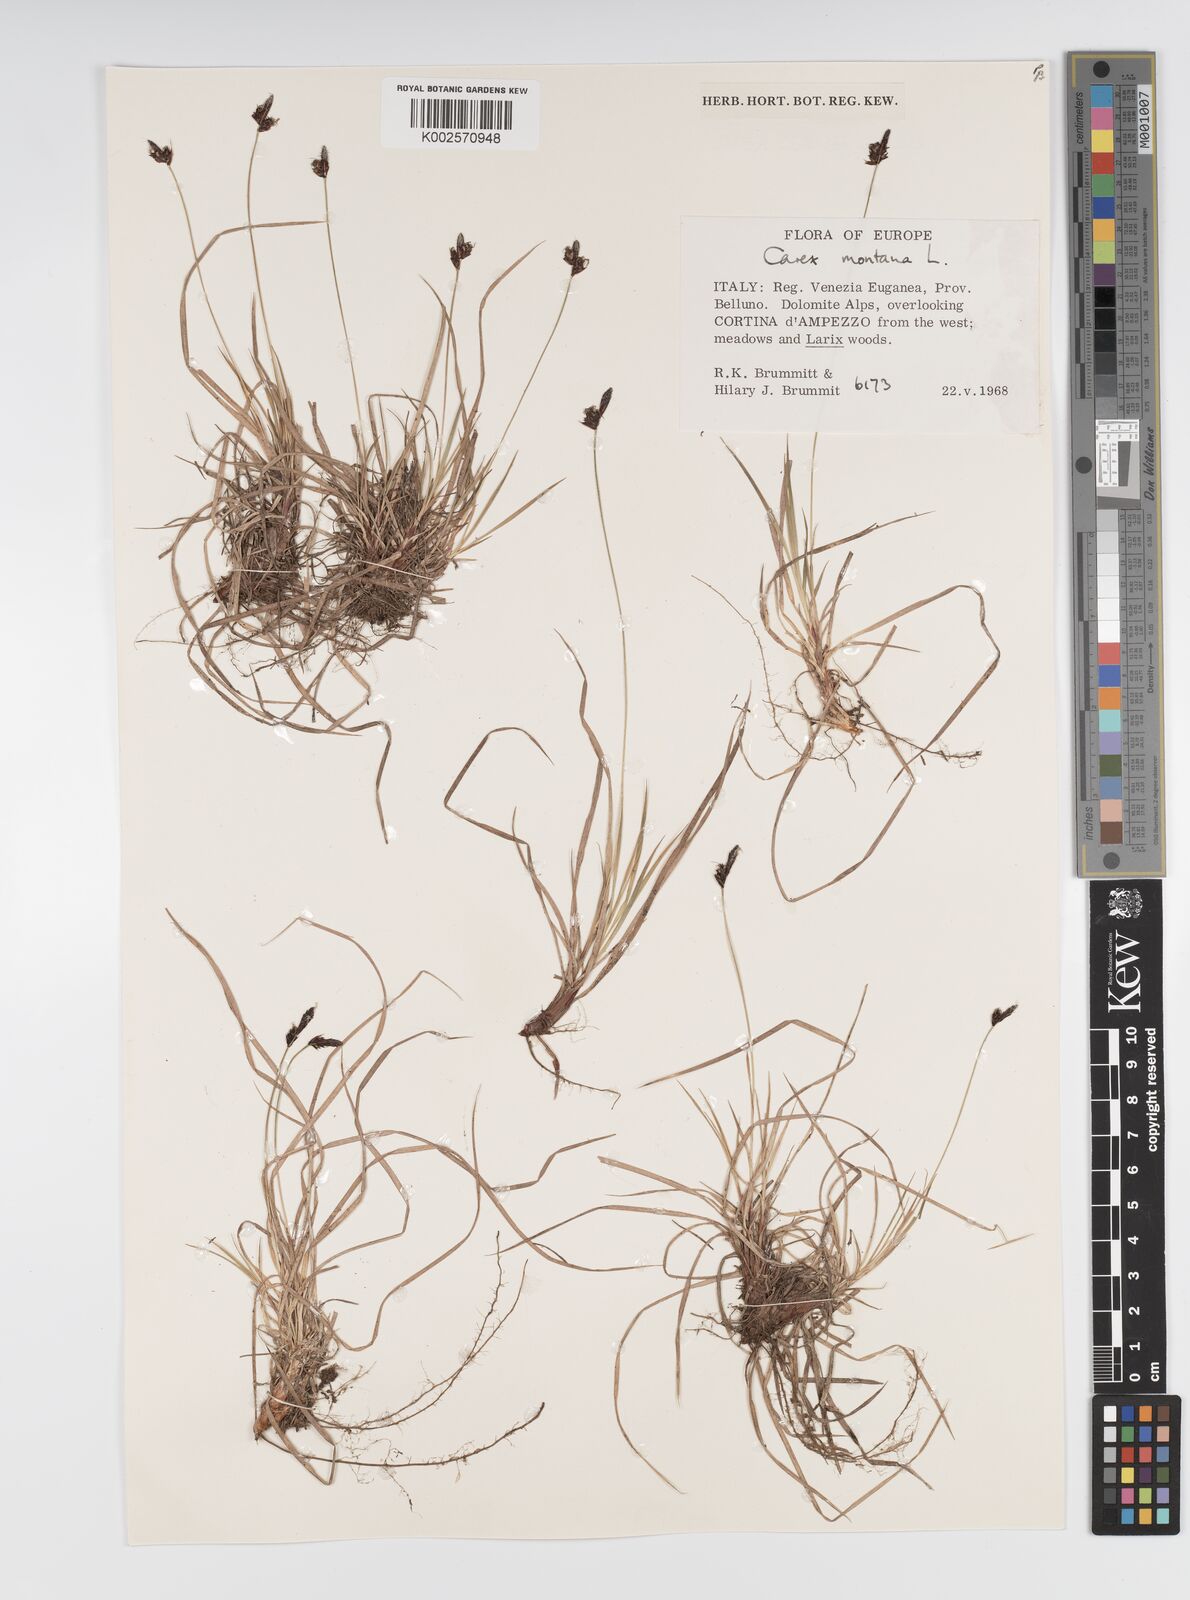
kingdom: Plantae
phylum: Tracheophyta
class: Liliopsida
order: Poales
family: Cyperaceae
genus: Carex
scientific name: Carex montana
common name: Soft-leaved sedge
